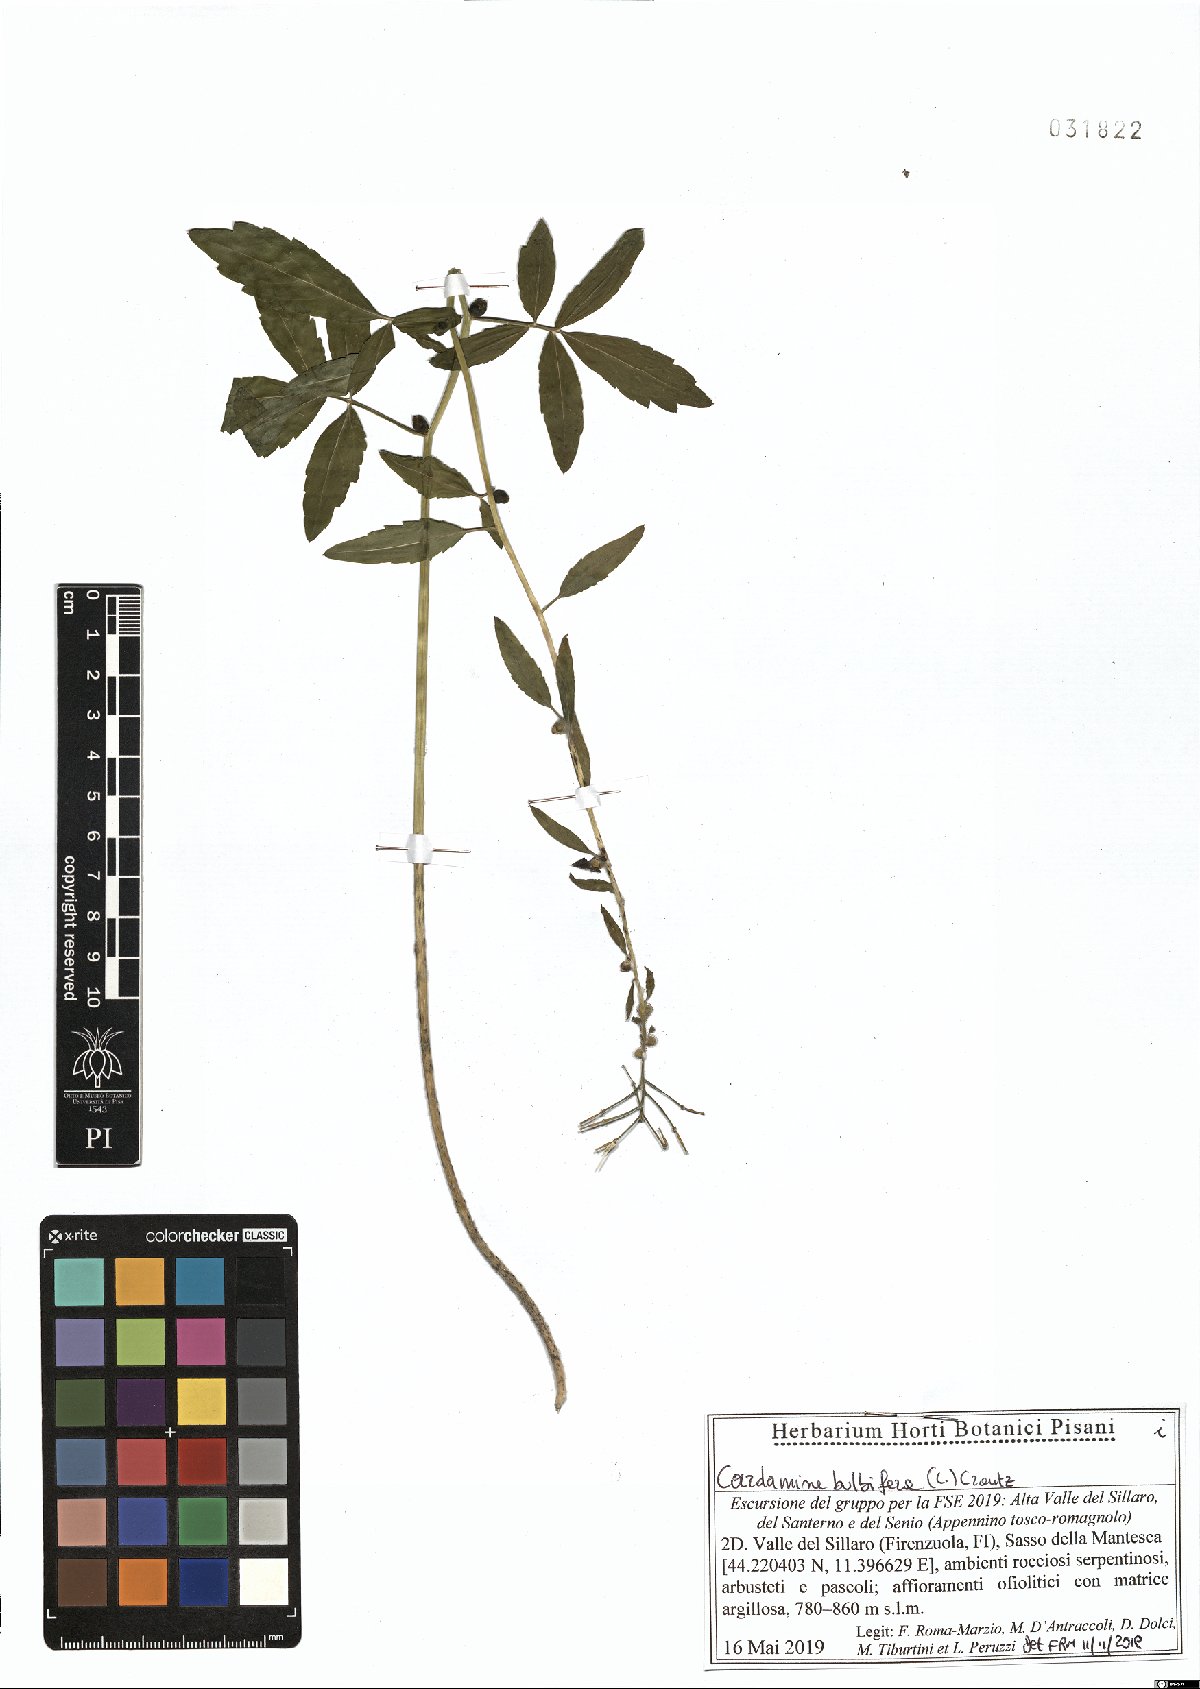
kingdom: Plantae
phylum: Tracheophyta
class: Magnoliopsida
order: Brassicales
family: Brassicaceae
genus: Cardamine
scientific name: Cardamine bulbifera
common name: Coralroot bittercress
